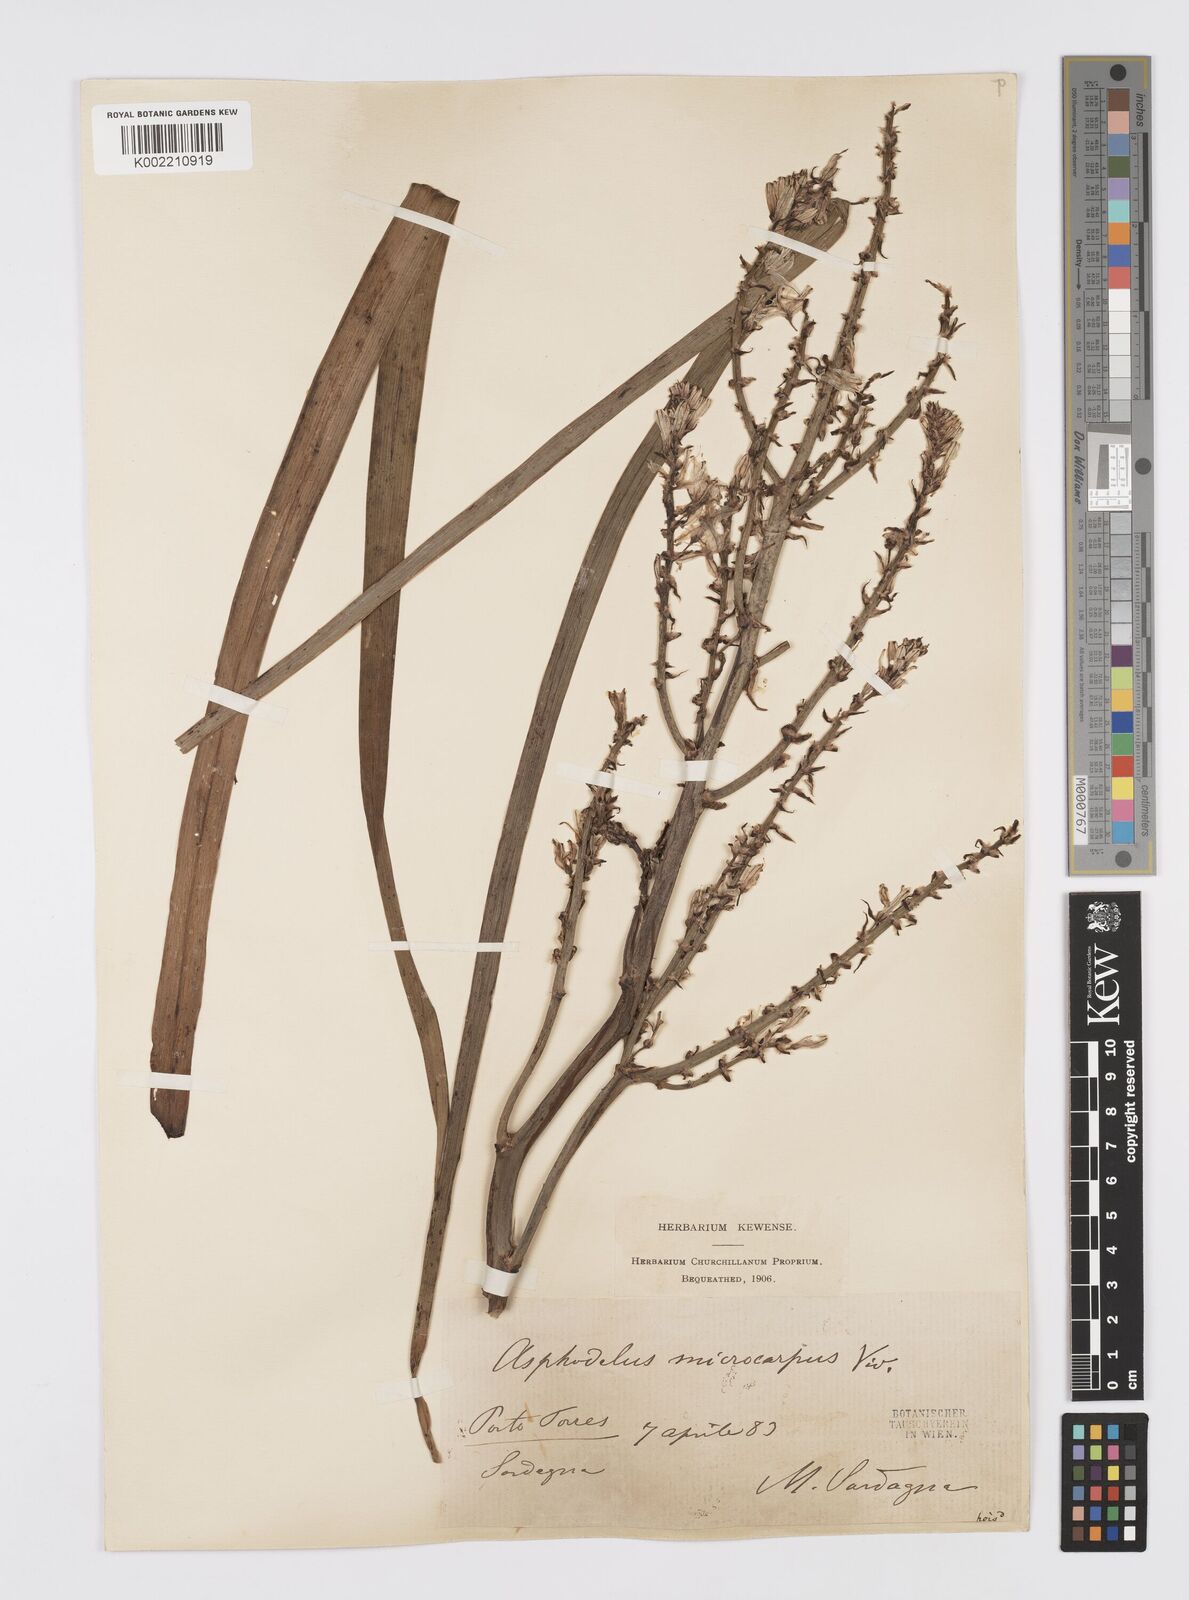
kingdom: Plantae
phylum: Tracheophyta
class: Liliopsida
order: Asparagales
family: Asphodelaceae
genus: Asphodelus
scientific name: Asphodelus ramosus
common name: Silverrod
